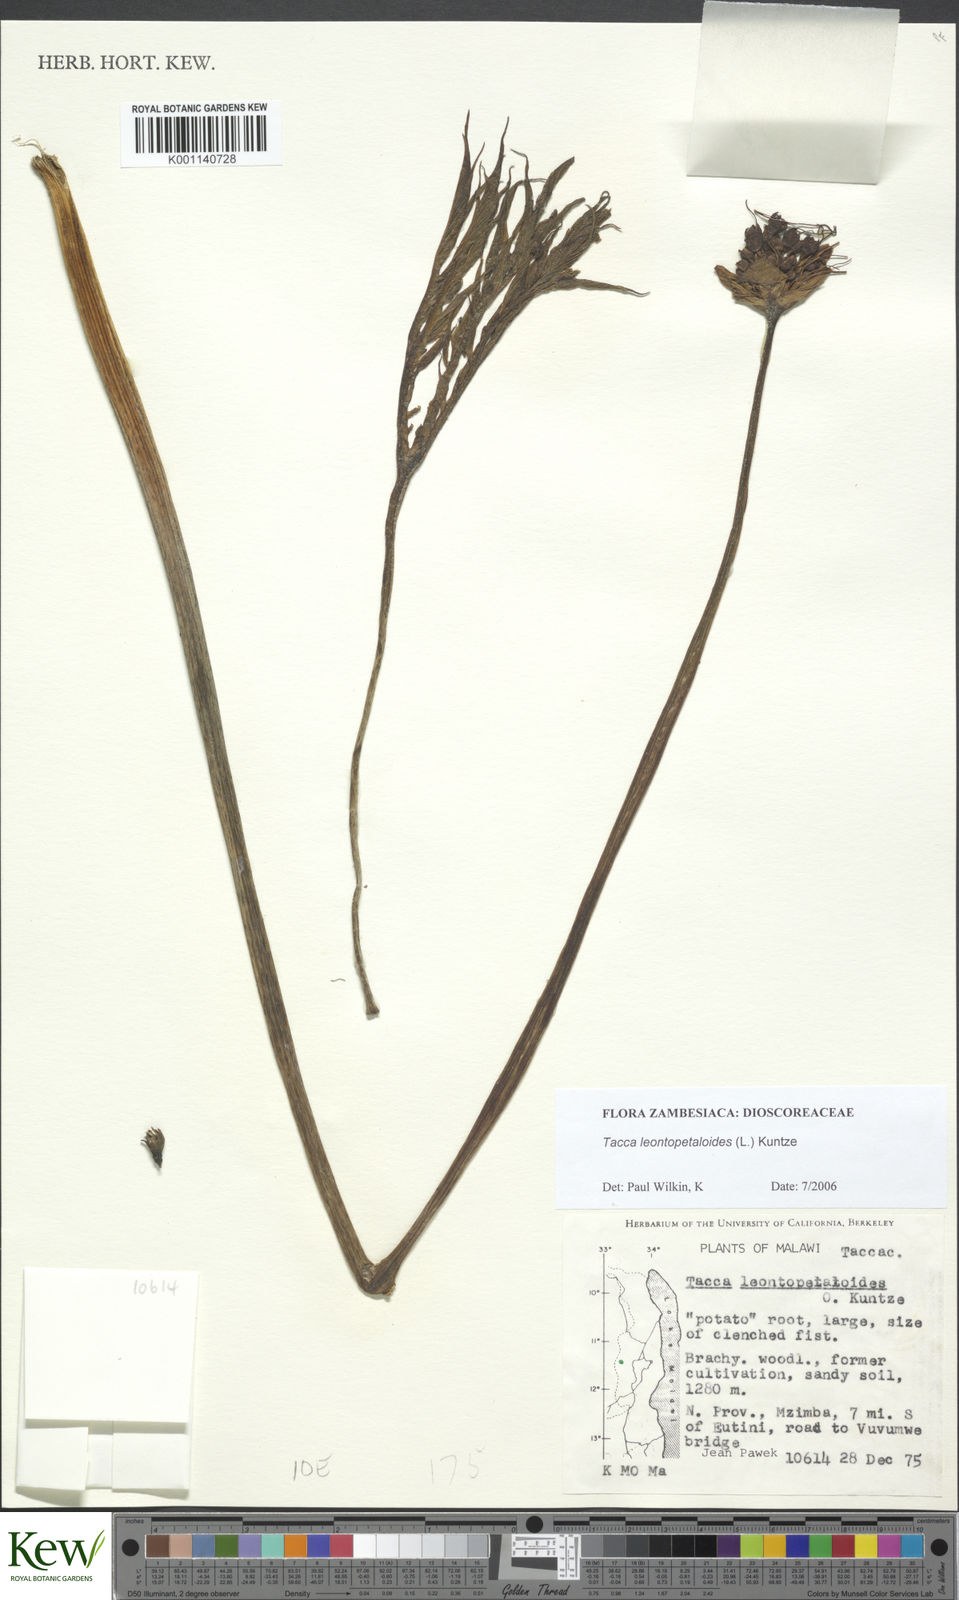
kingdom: Plantae
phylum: Tracheophyta
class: Liliopsida
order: Dioscoreales
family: Dioscoreaceae
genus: Tacca
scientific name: Tacca leontopetaloides
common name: Arrowroot
